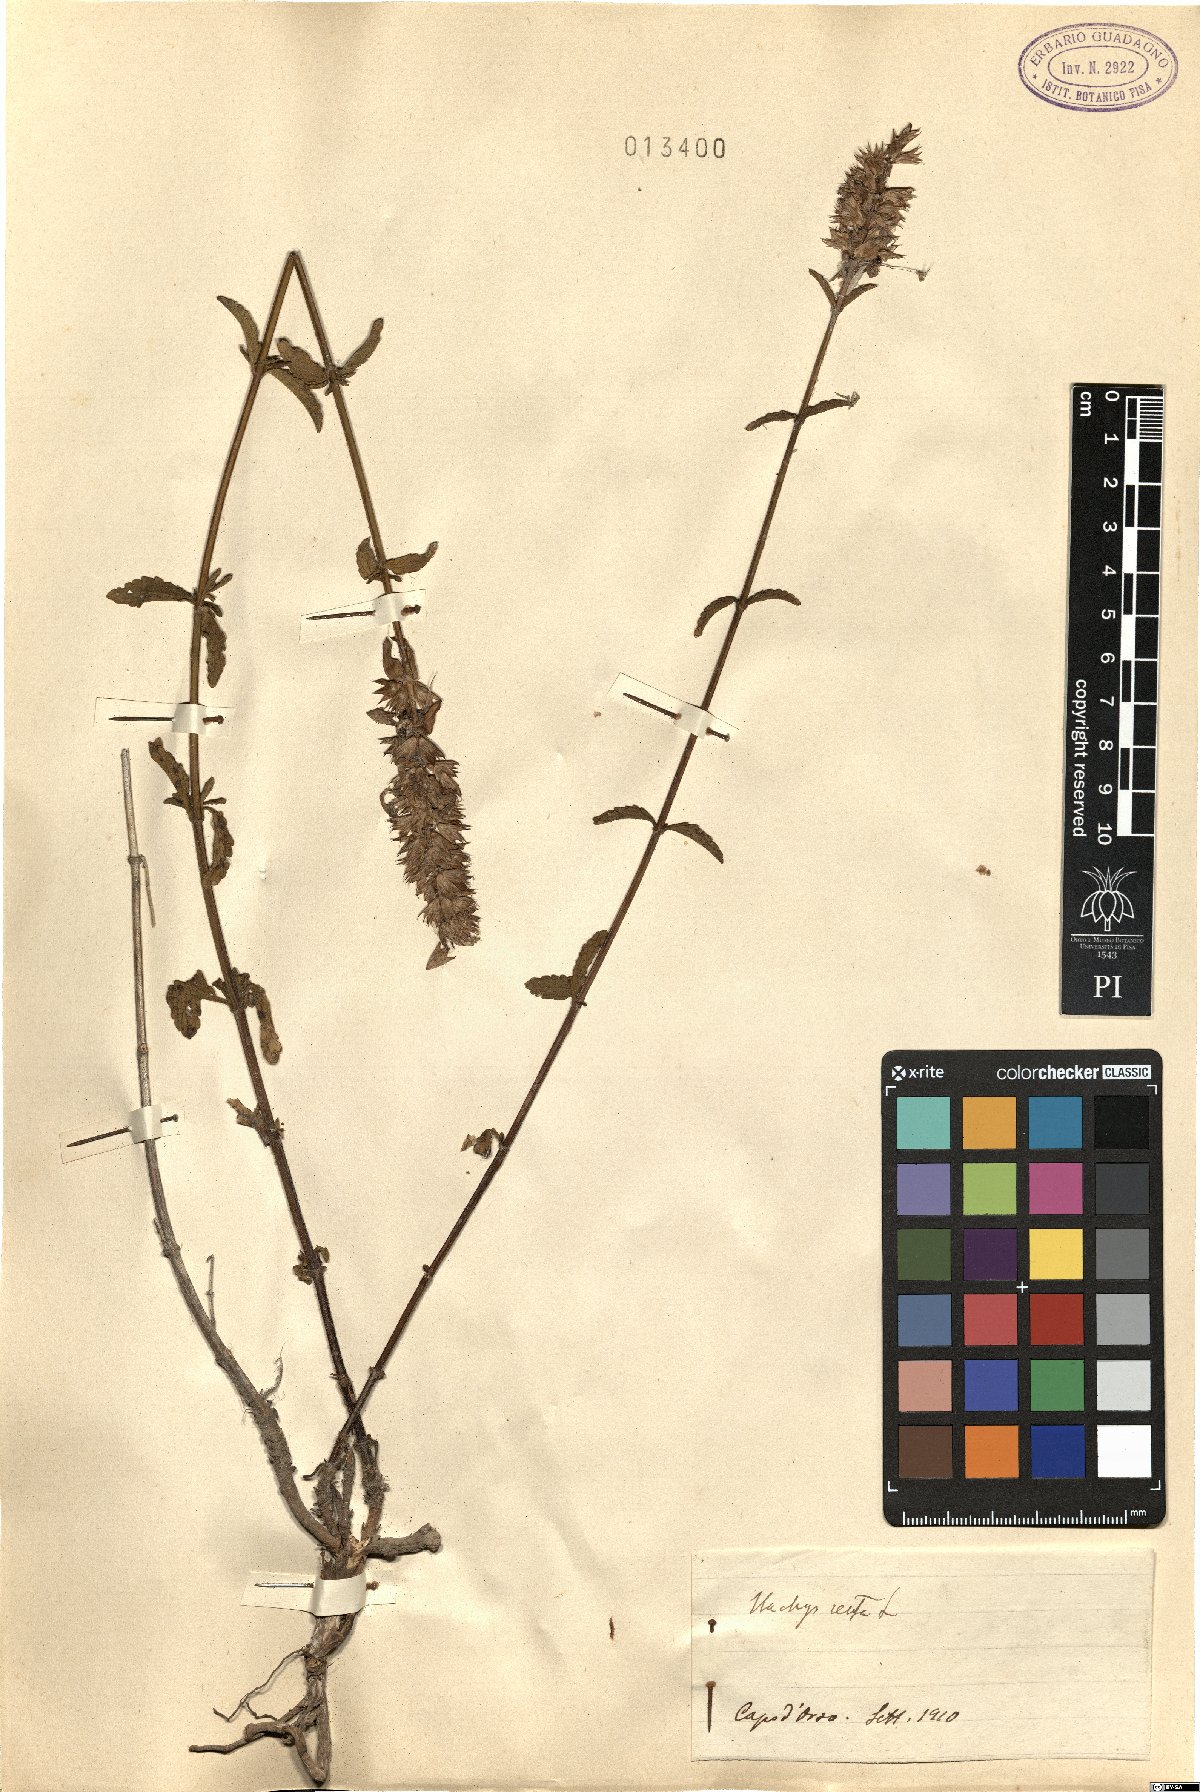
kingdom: Plantae
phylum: Tracheophyta
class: Magnoliopsida
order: Lamiales
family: Lamiaceae
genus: Stachys
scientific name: Stachys recta
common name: Perennial yellow-woundwort
